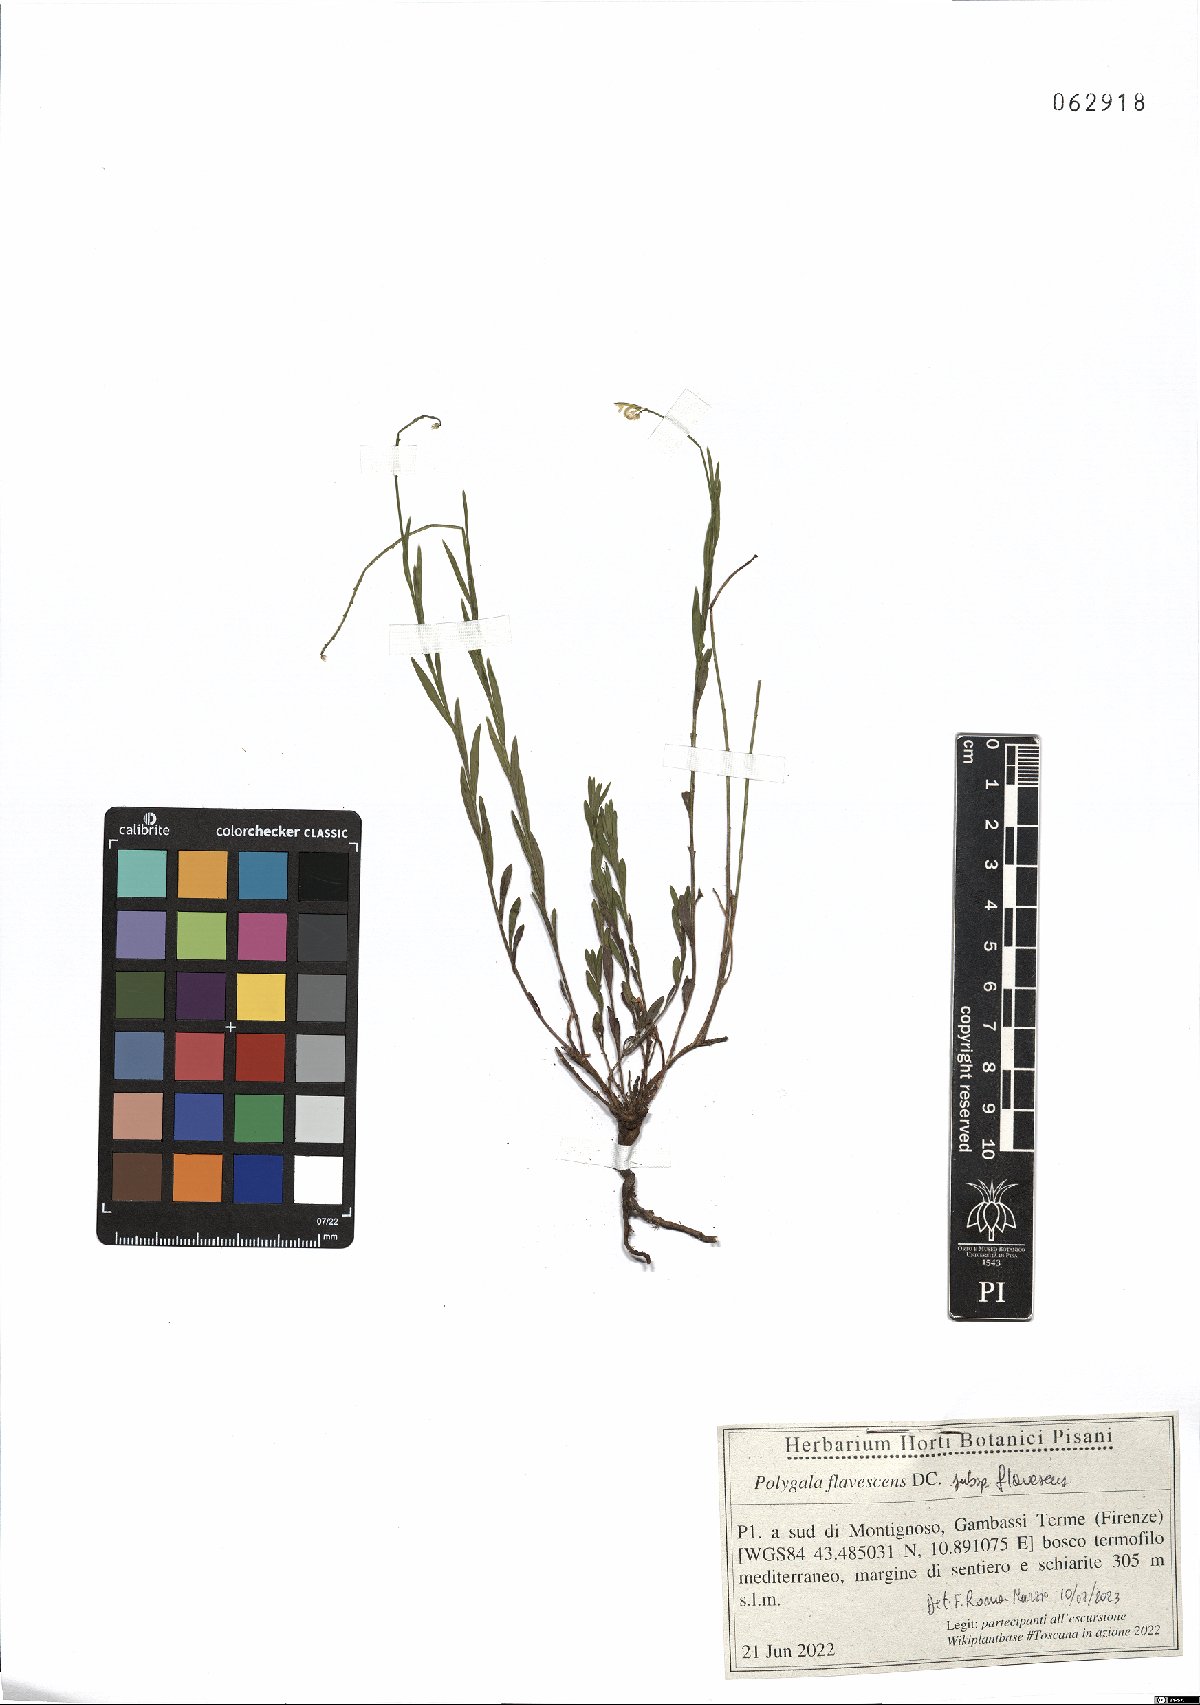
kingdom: Plantae
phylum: Tracheophyta
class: Magnoliopsida
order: Fabales
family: Polygalaceae
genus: Polygala
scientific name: Polygala flavescens
